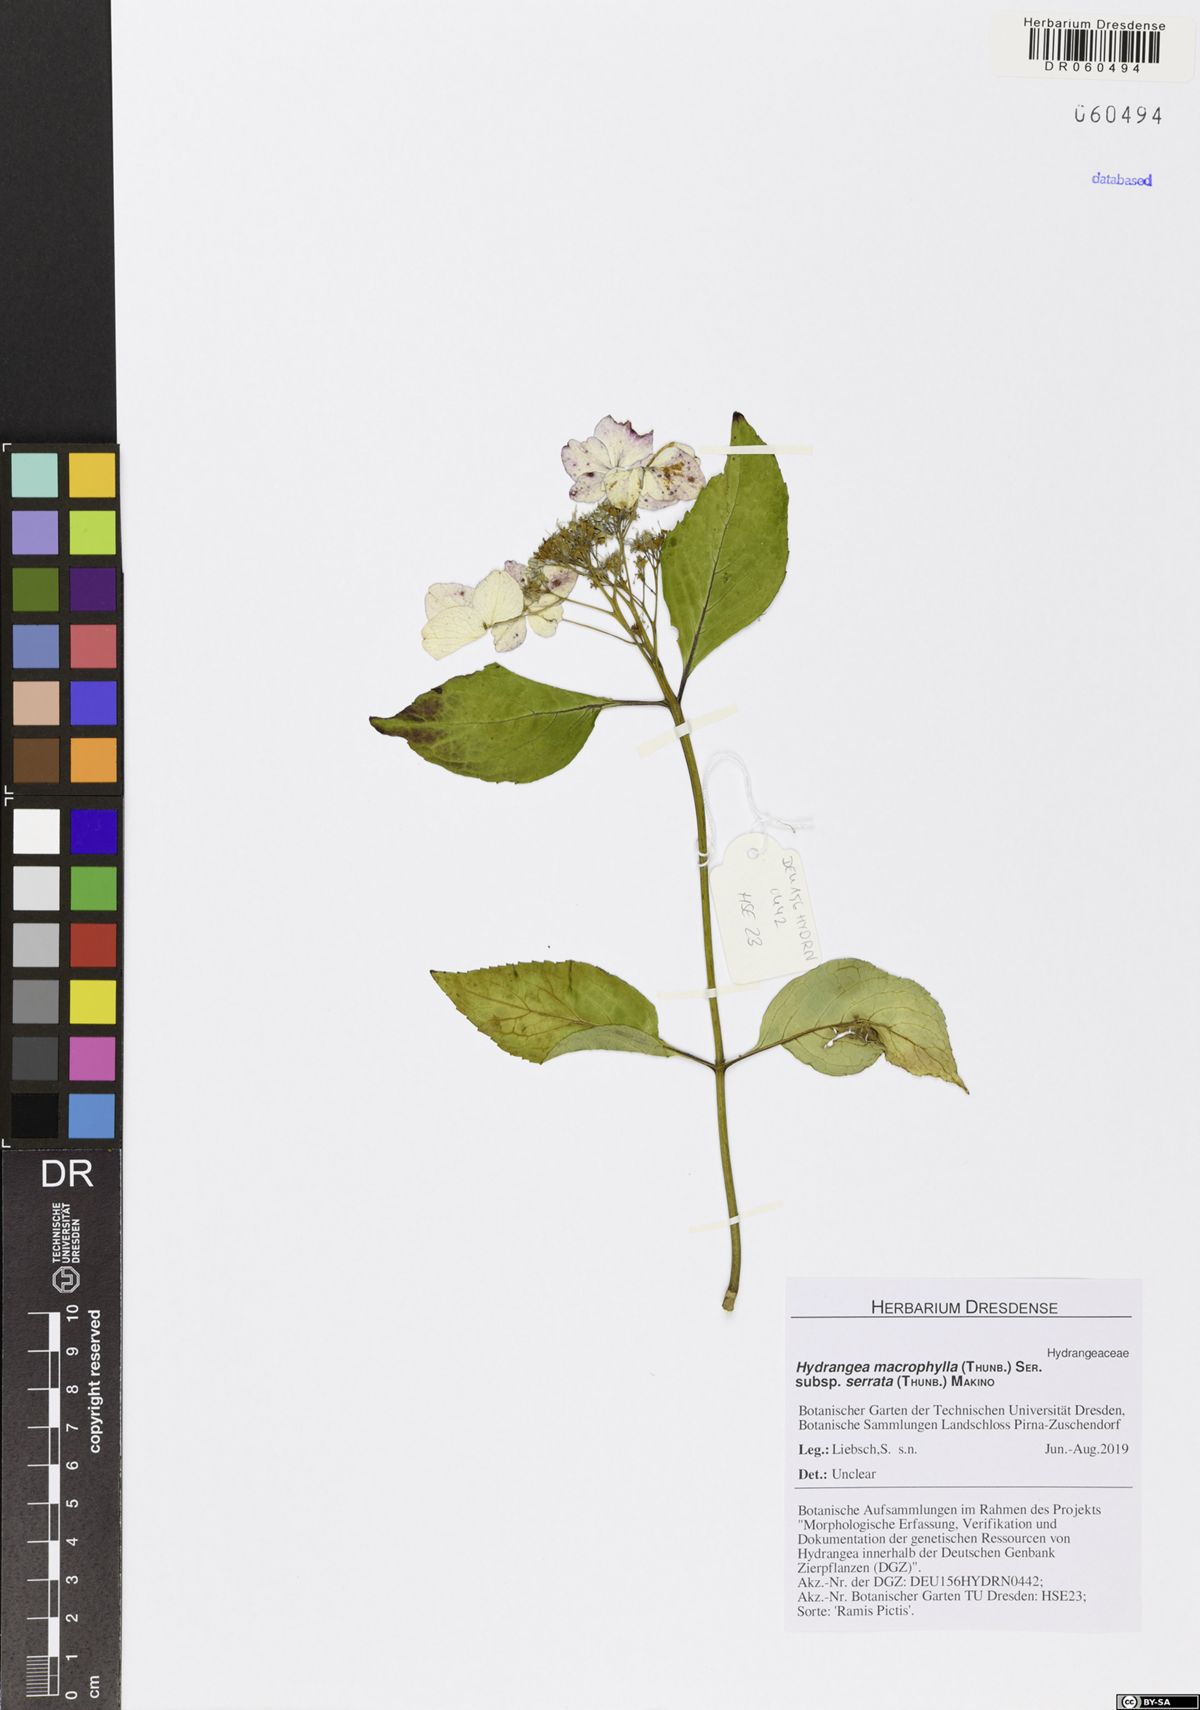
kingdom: Plantae
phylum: Tracheophyta
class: Magnoliopsida
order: Cornales
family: Hydrangeaceae
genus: Hydrangea
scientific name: Hydrangea serrata
